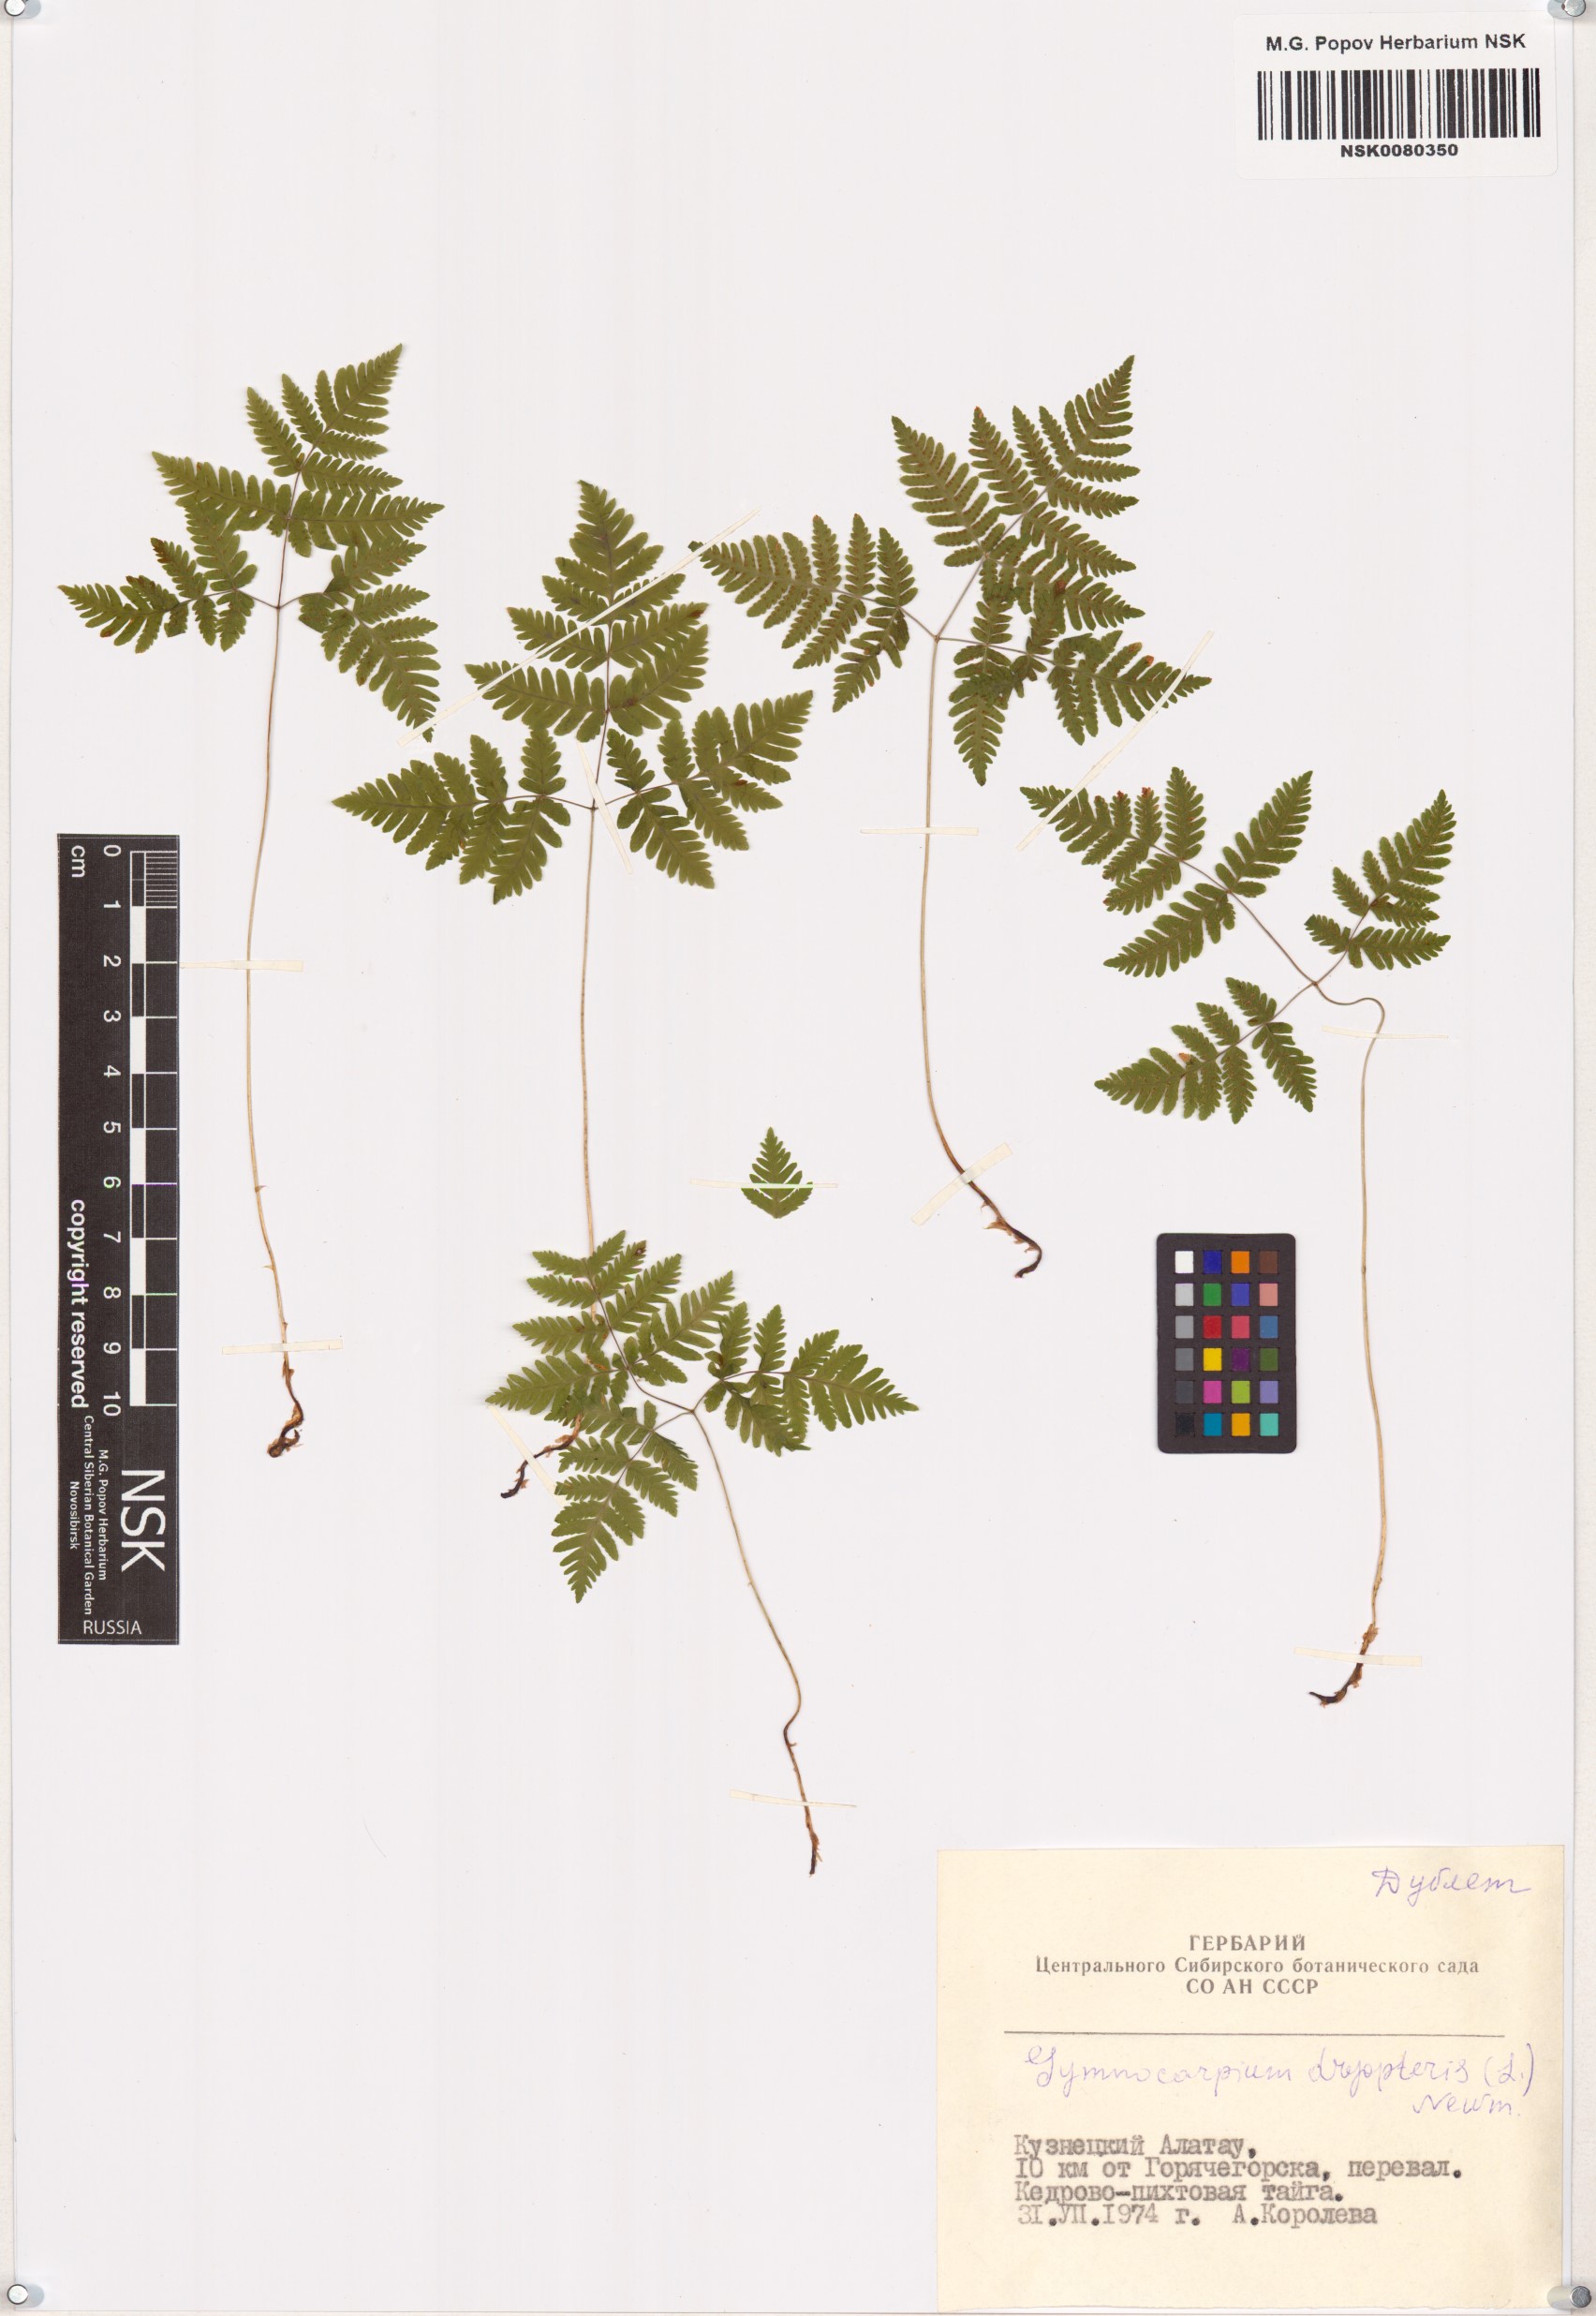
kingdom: Plantae
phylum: Tracheophyta
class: Polypodiopsida
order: Polypodiales
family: Cystopteridaceae
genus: Gymnocarpium
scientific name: Gymnocarpium dryopteris
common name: Oak fern
